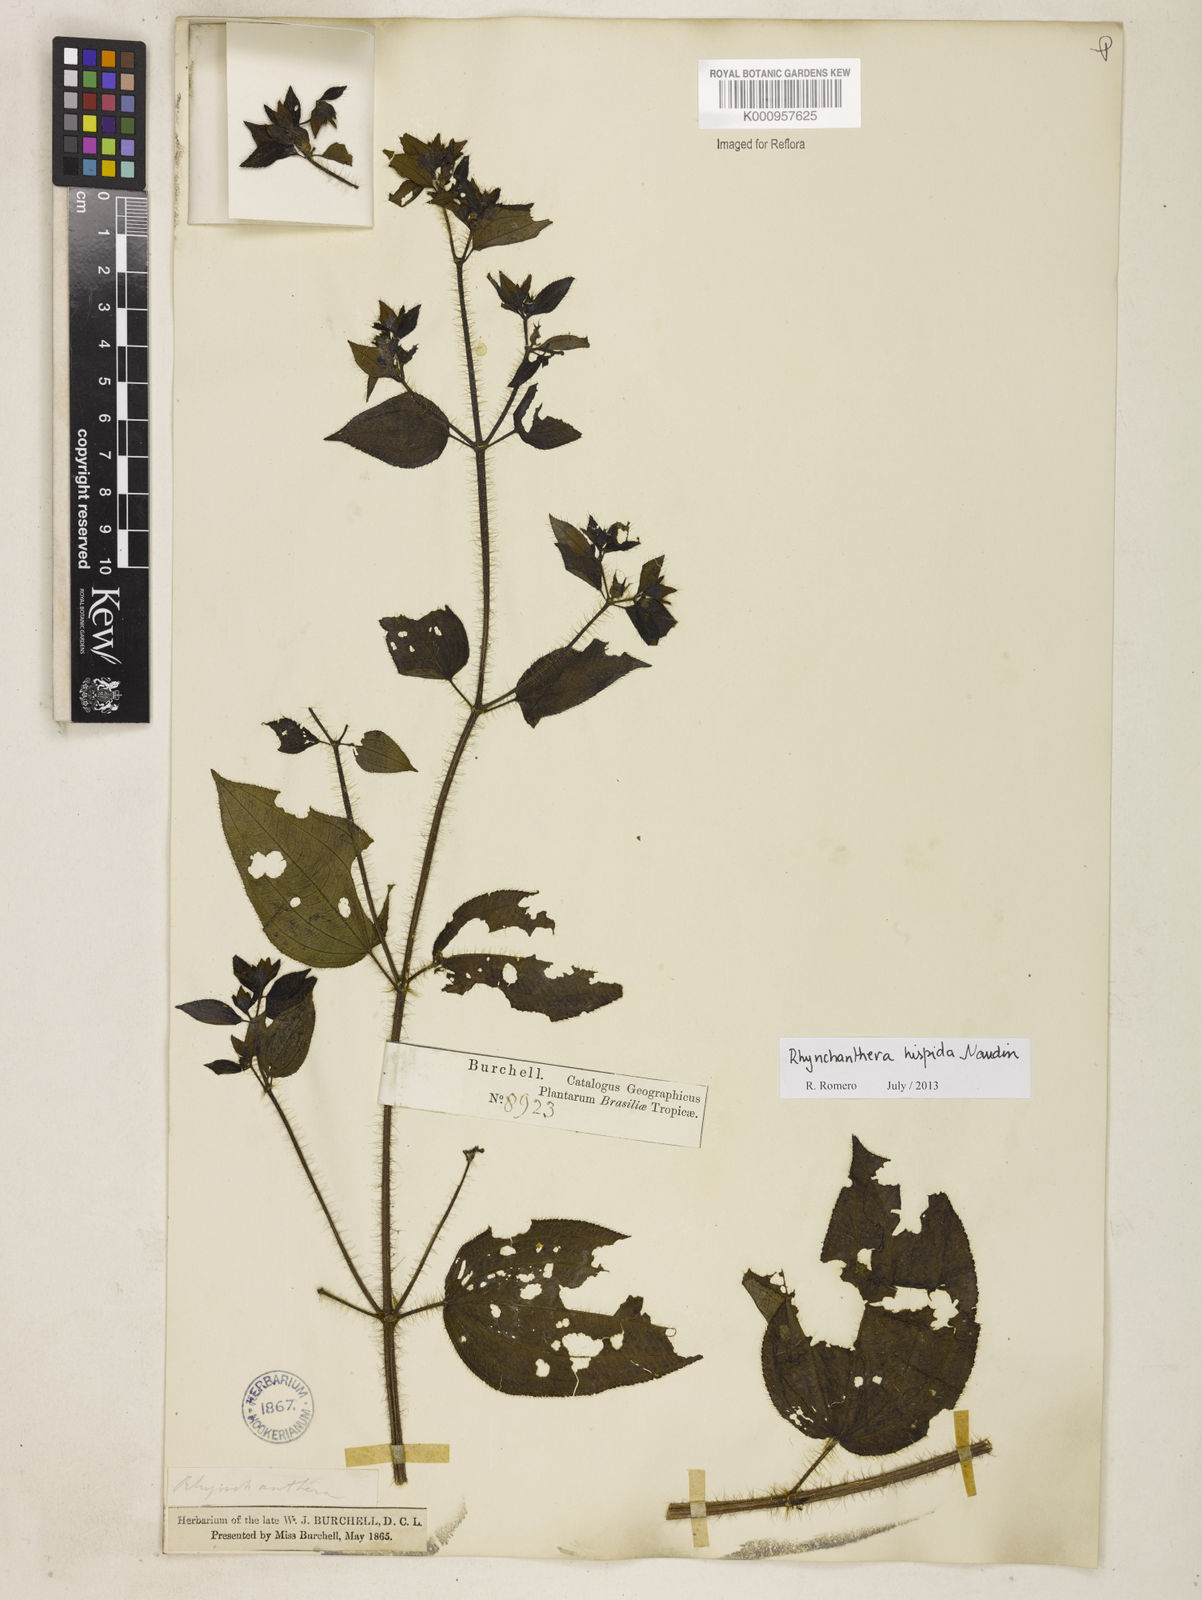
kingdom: Plantae
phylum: Tracheophyta
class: Magnoliopsida
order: Myrtales
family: Melastomataceae
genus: Rhynchanthera
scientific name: Rhynchanthera hispida
